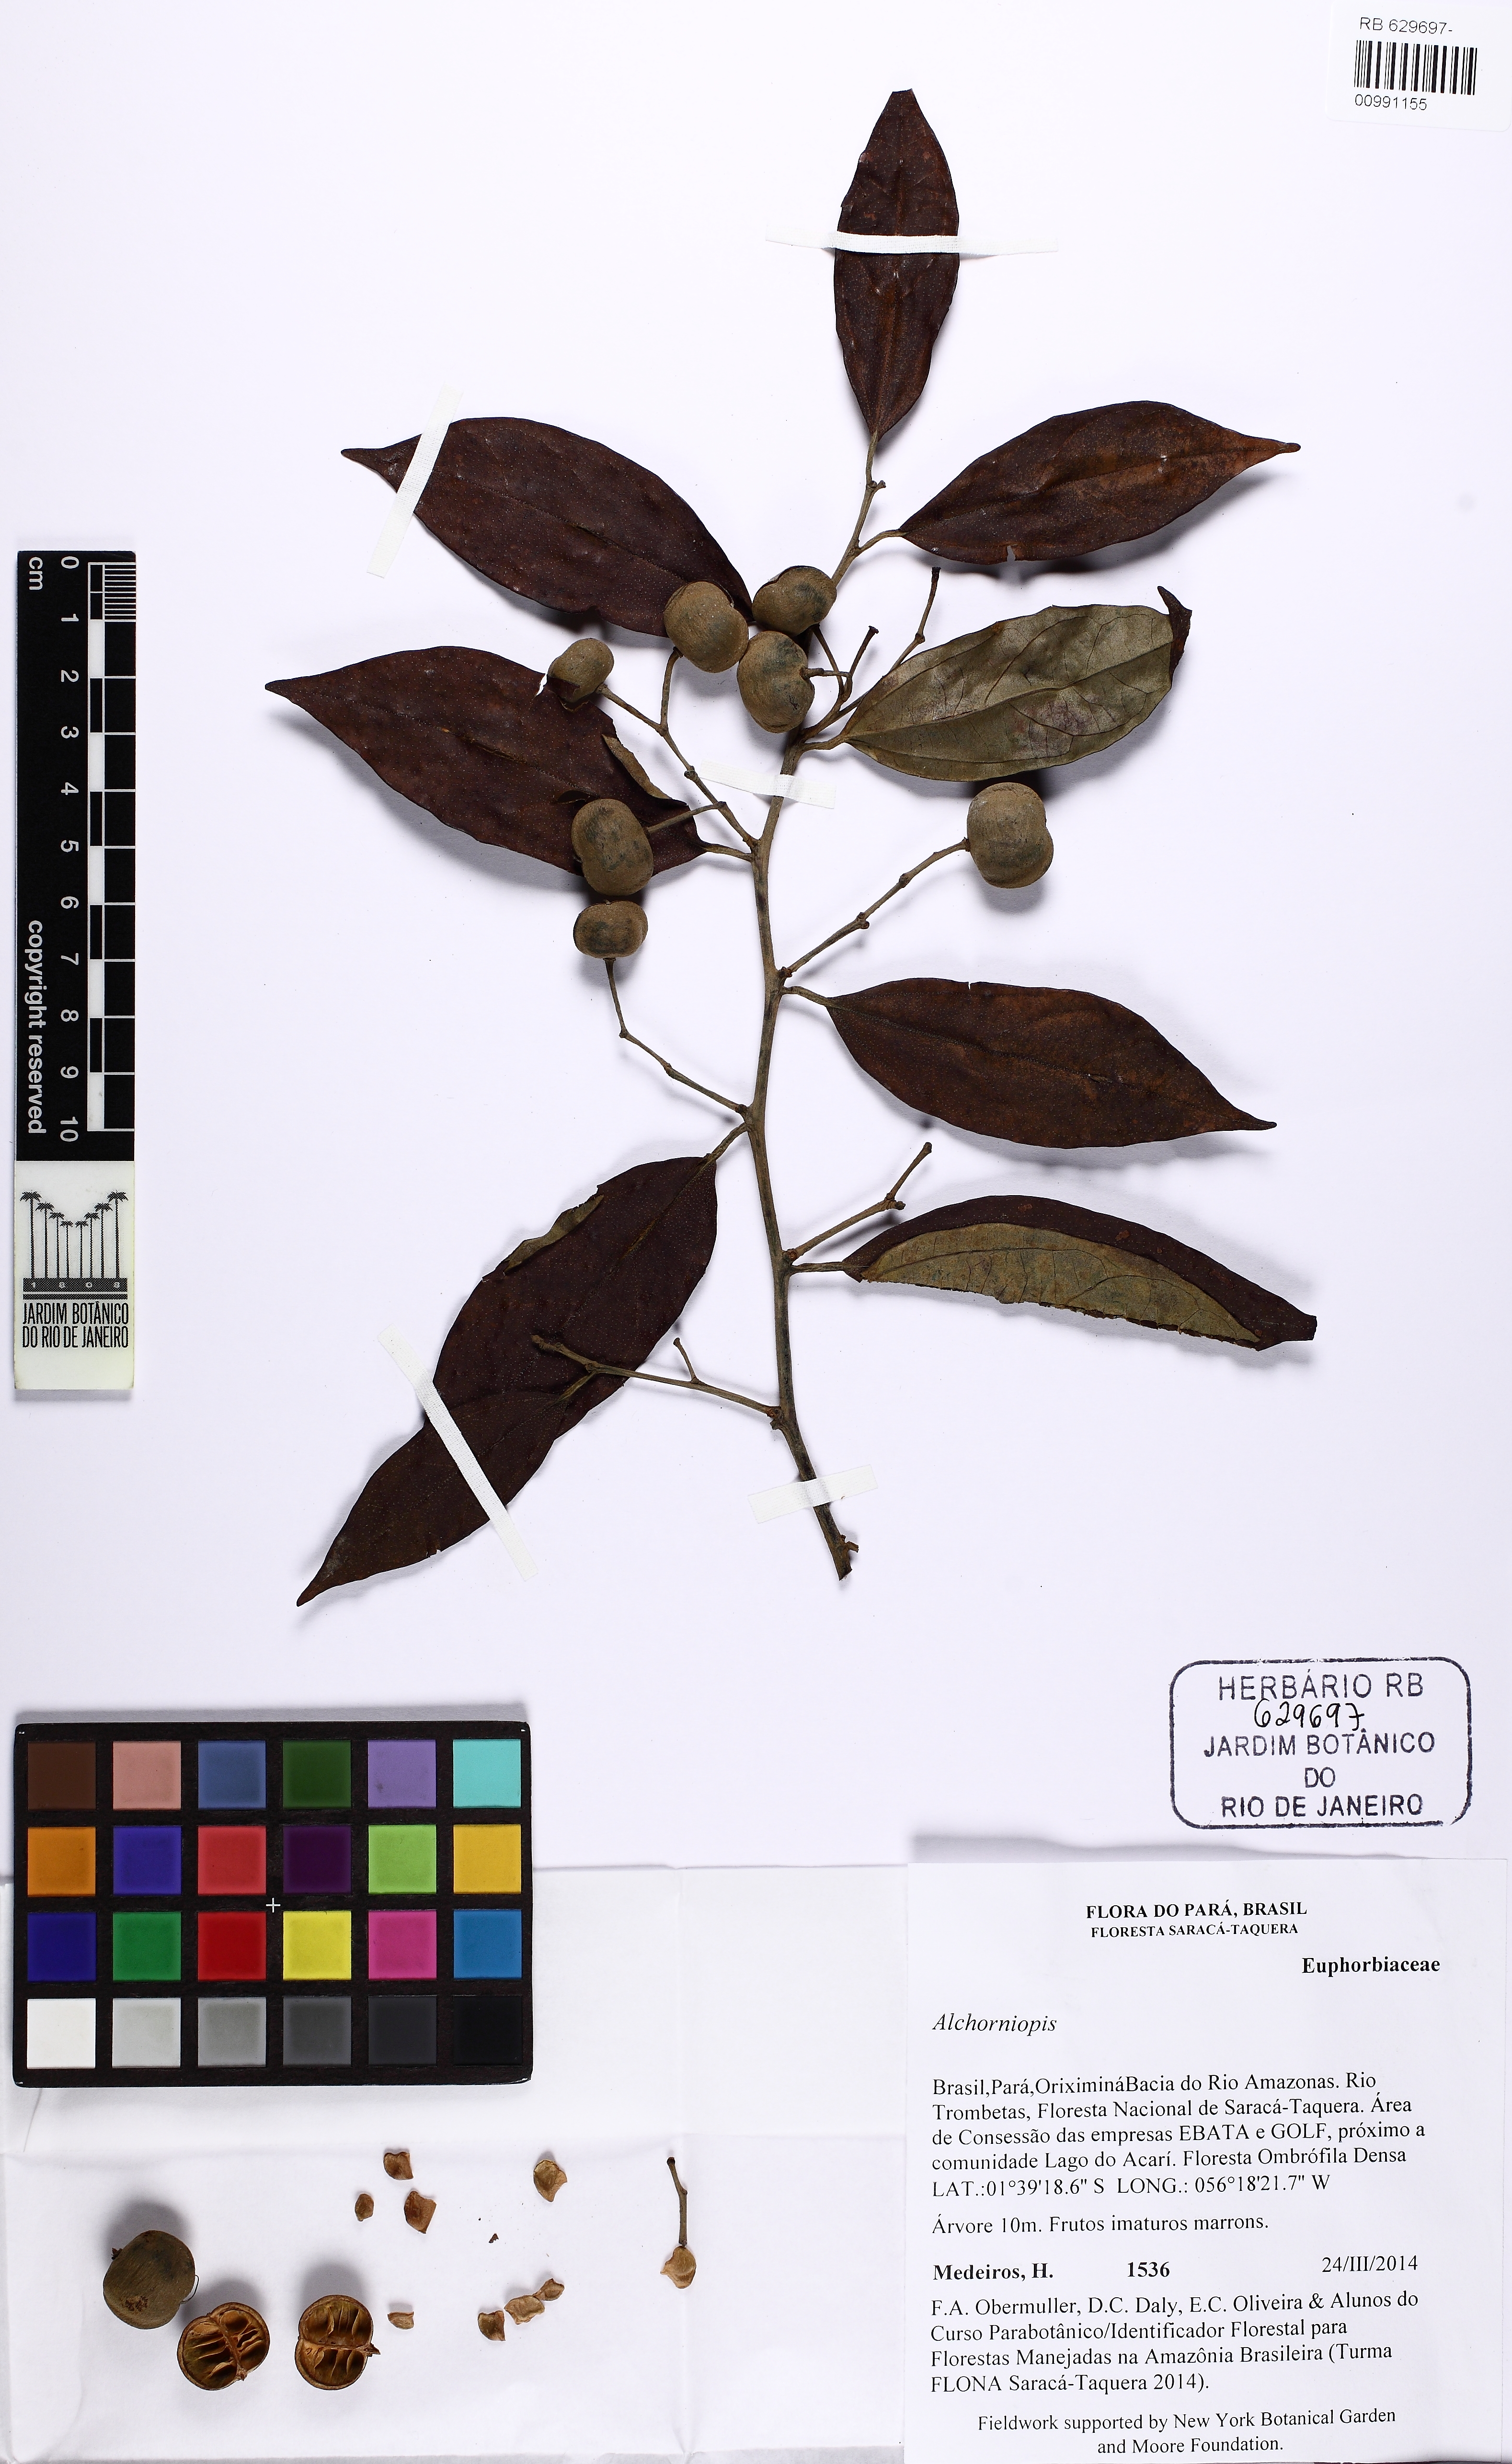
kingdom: Plantae
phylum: Tracheophyta
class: Magnoliopsida
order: Malpighiales
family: Euphorbiaceae
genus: Alchorneopsis
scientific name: Alchorneopsis
